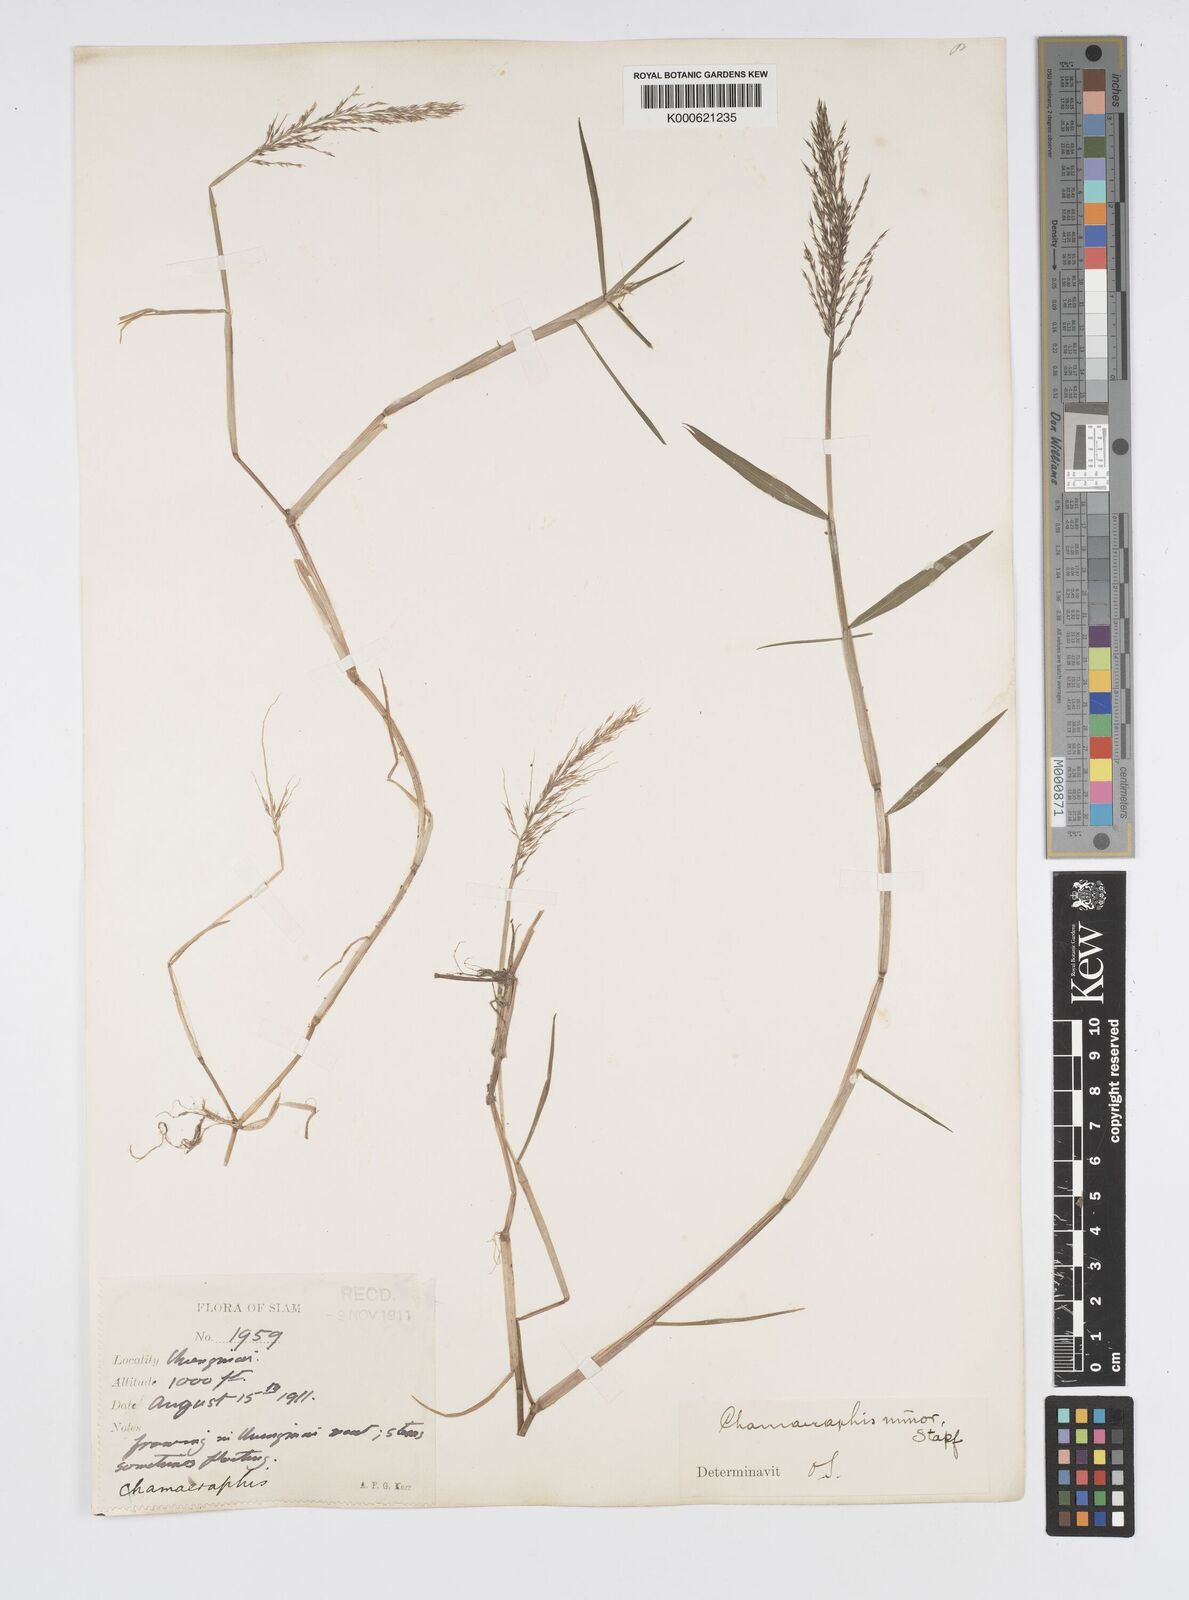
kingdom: Plantae
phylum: Tracheophyta
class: Liliopsida
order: Poales
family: Poaceae
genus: Pseudoraphis
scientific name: Pseudoraphis minuta
